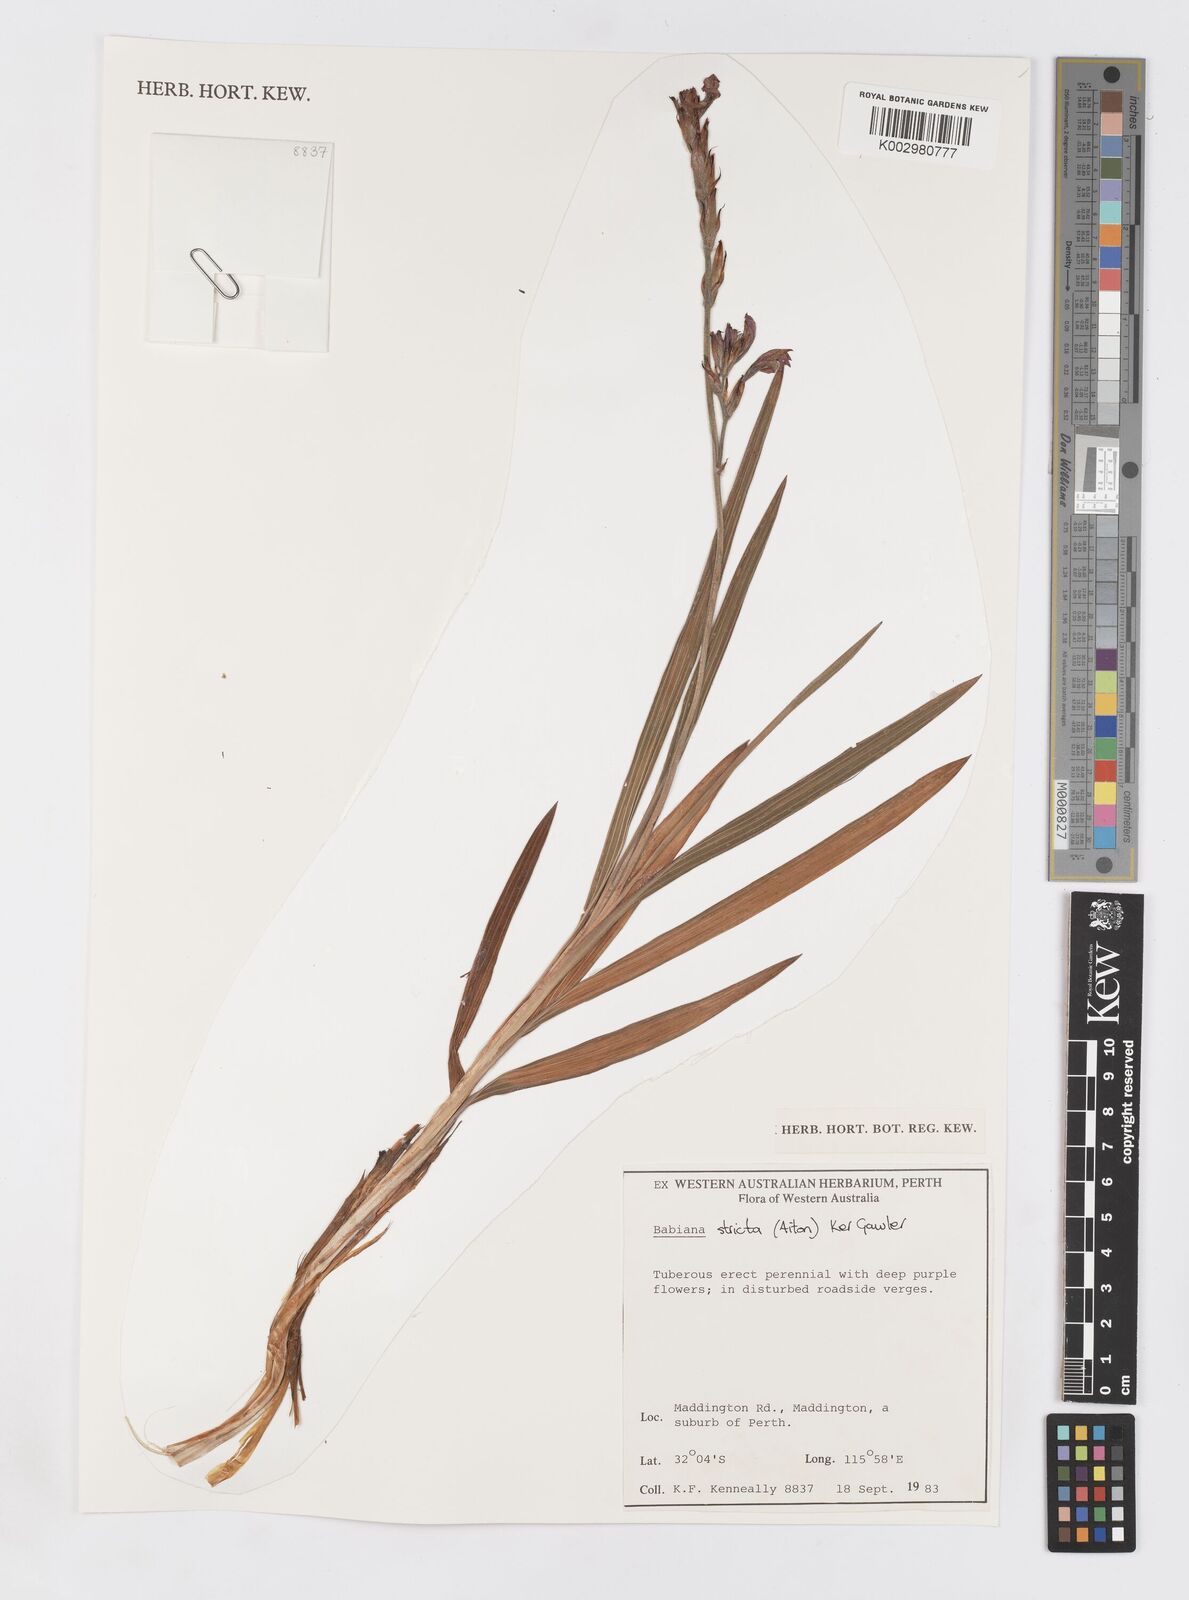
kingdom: Plantae
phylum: Tracheophyta
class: Liliopsida
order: Asparagales
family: Iridaceae
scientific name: Iridaceae
